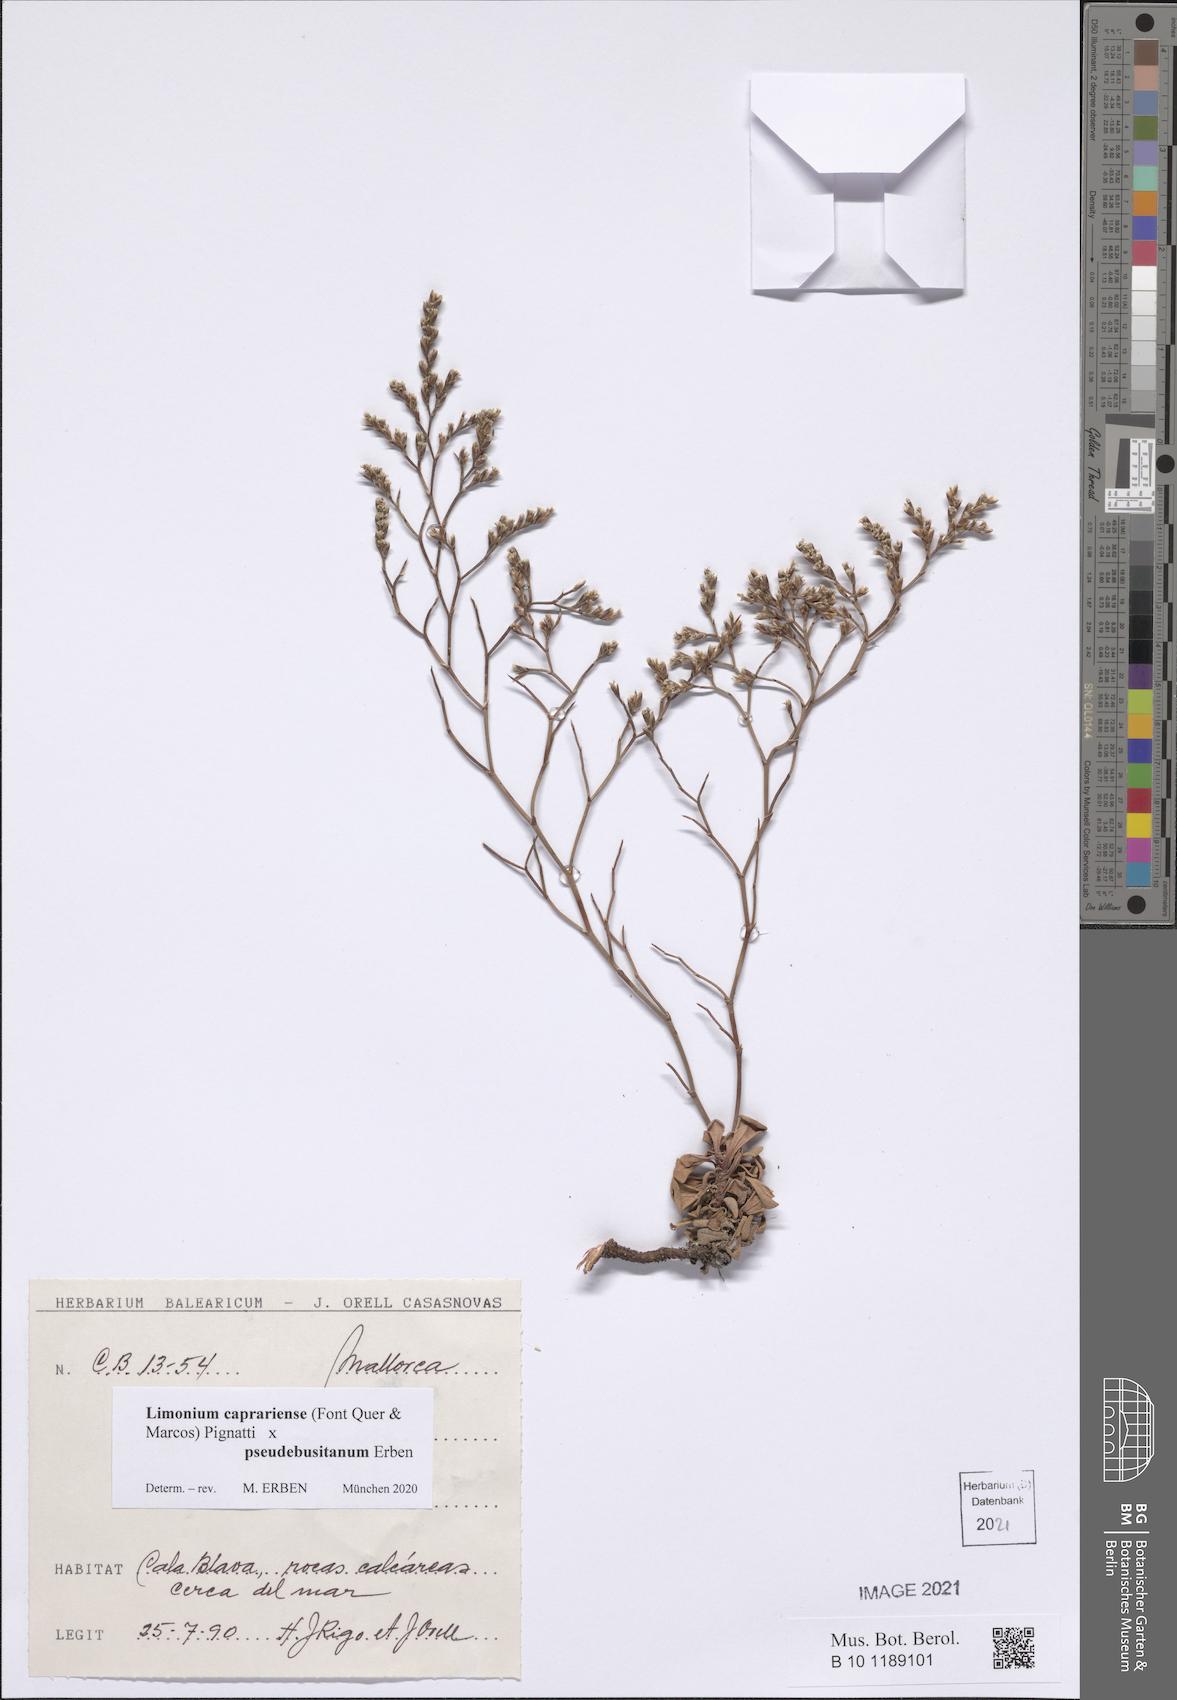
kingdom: Plantae
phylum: Tracheophyta
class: Magnoliopsida
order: Caryophyllales
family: Plumbaginaceae
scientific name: Plumbaginaceae
